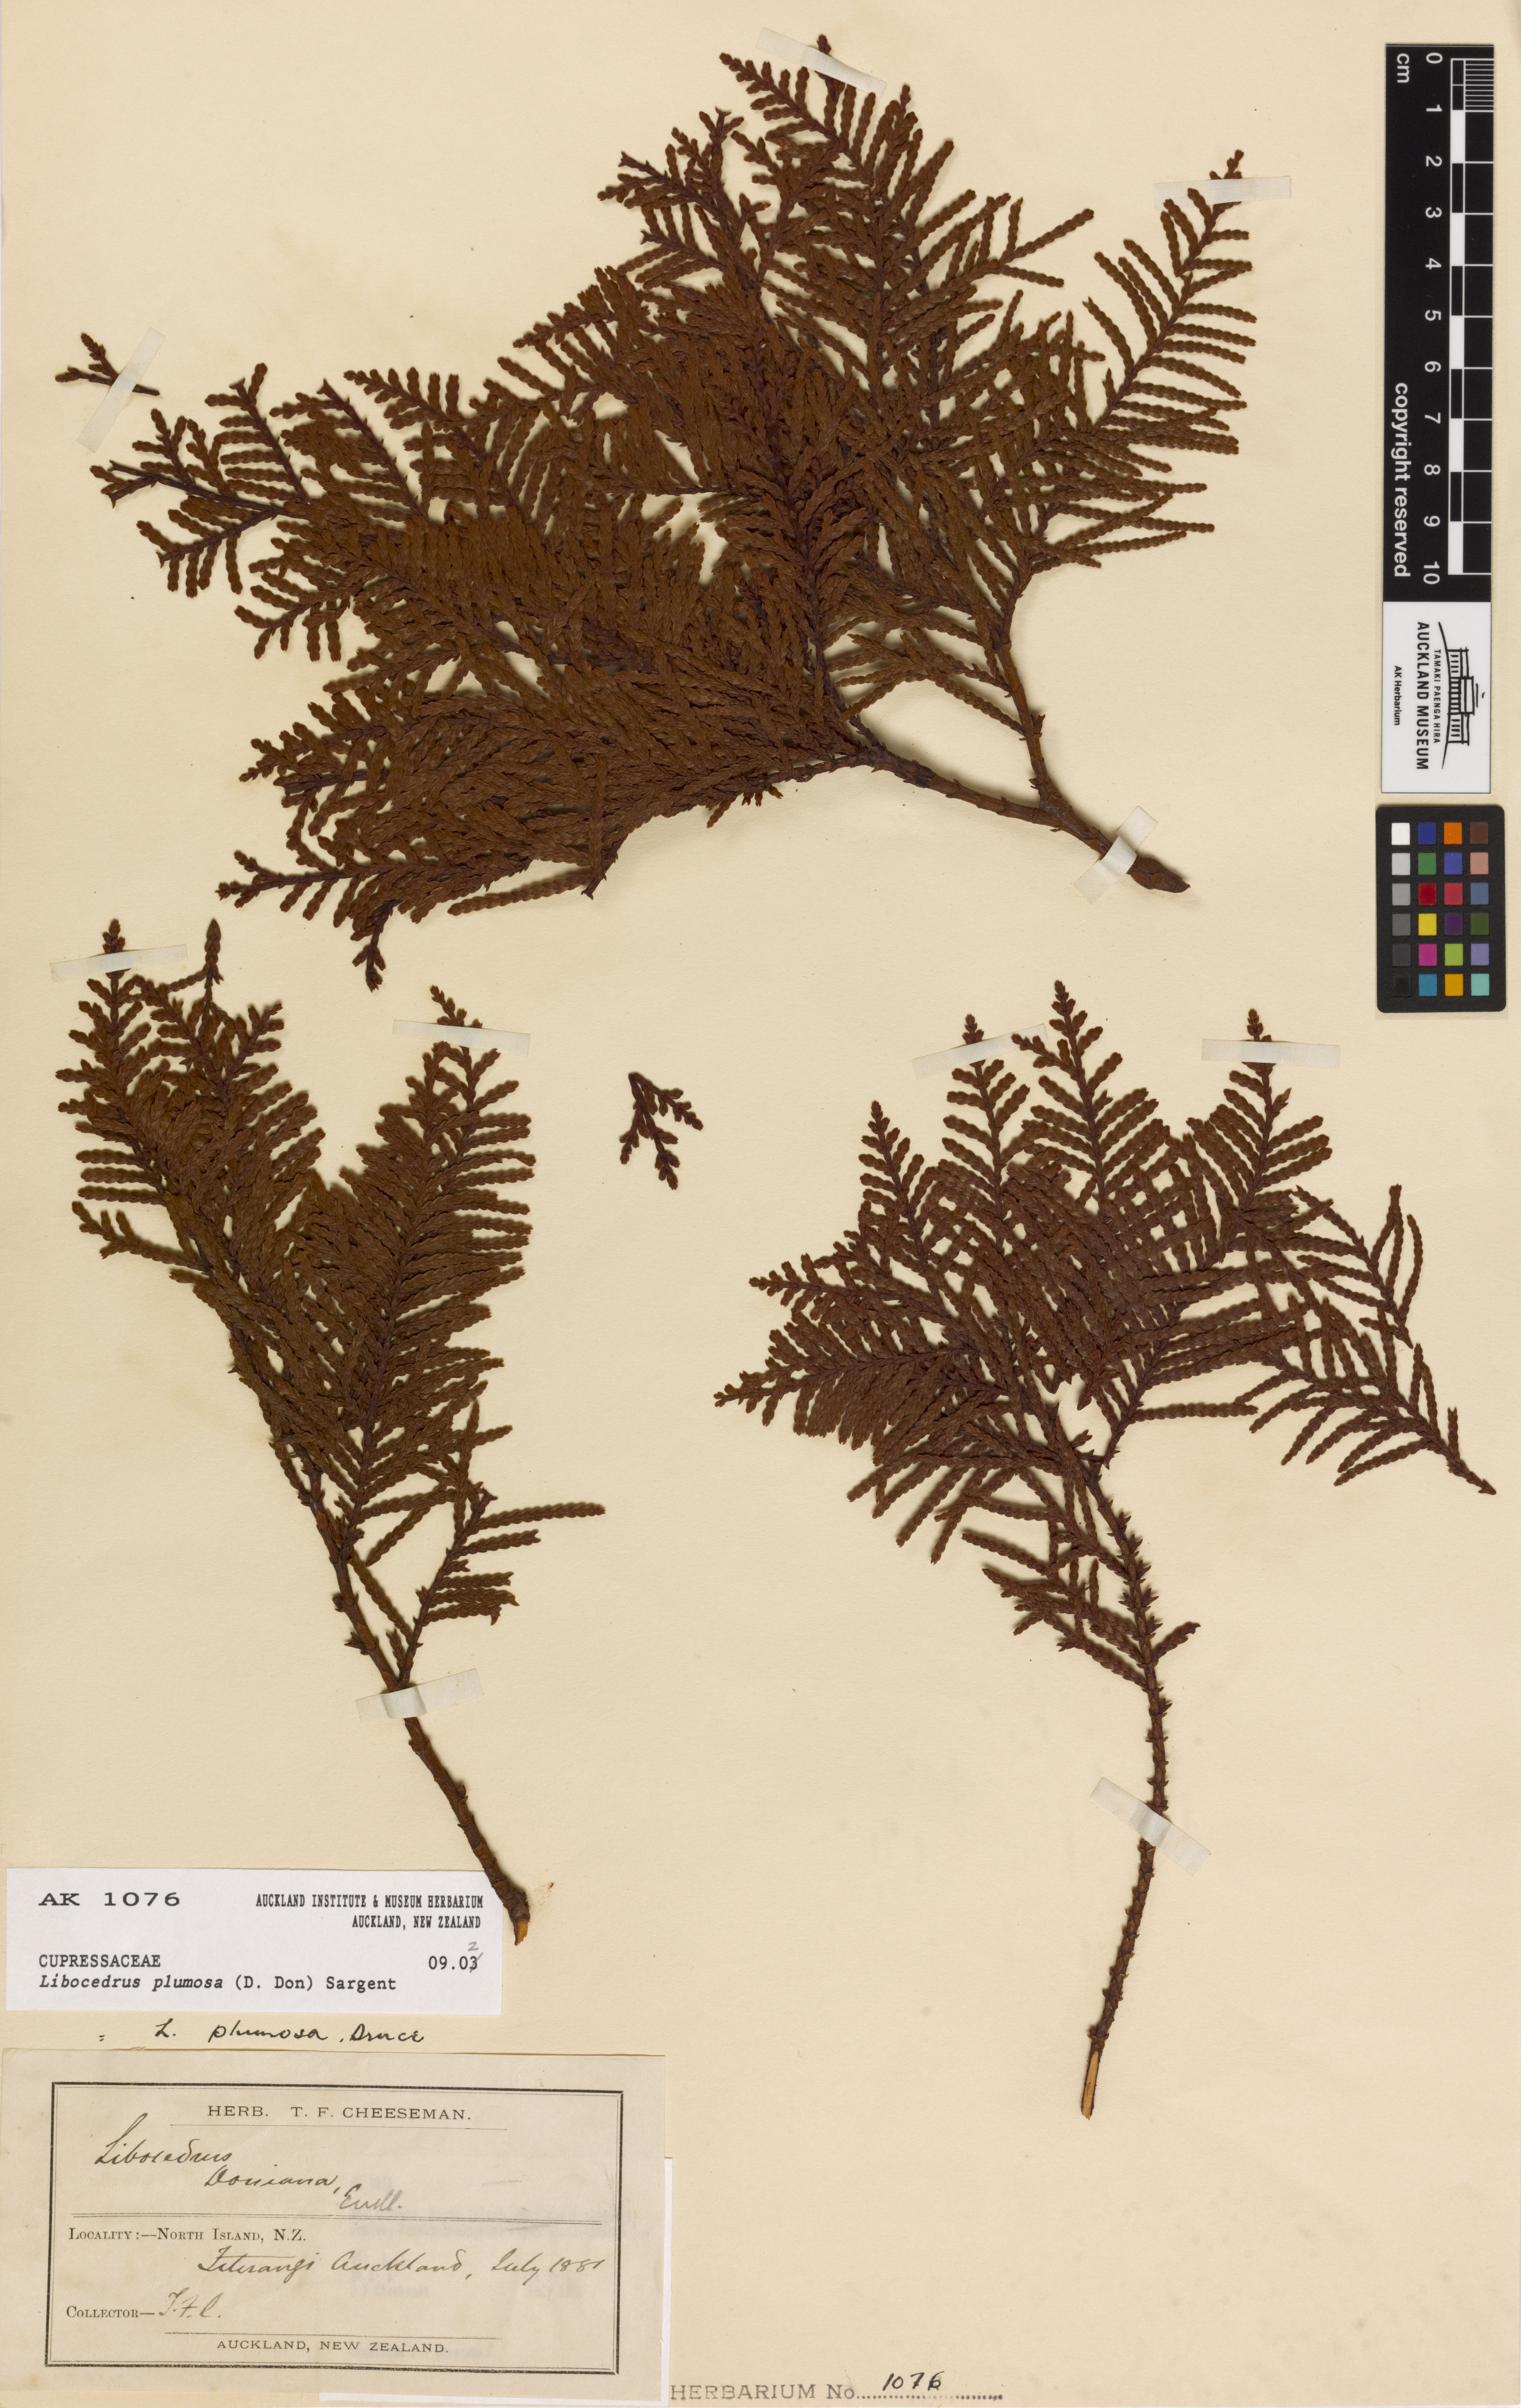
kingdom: Plantae
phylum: Tracheophyta
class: Pinopsida
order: Pinales
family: Cupressaceae
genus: Libocedrus
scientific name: Libocedrus plumosa
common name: New zealand cedar
